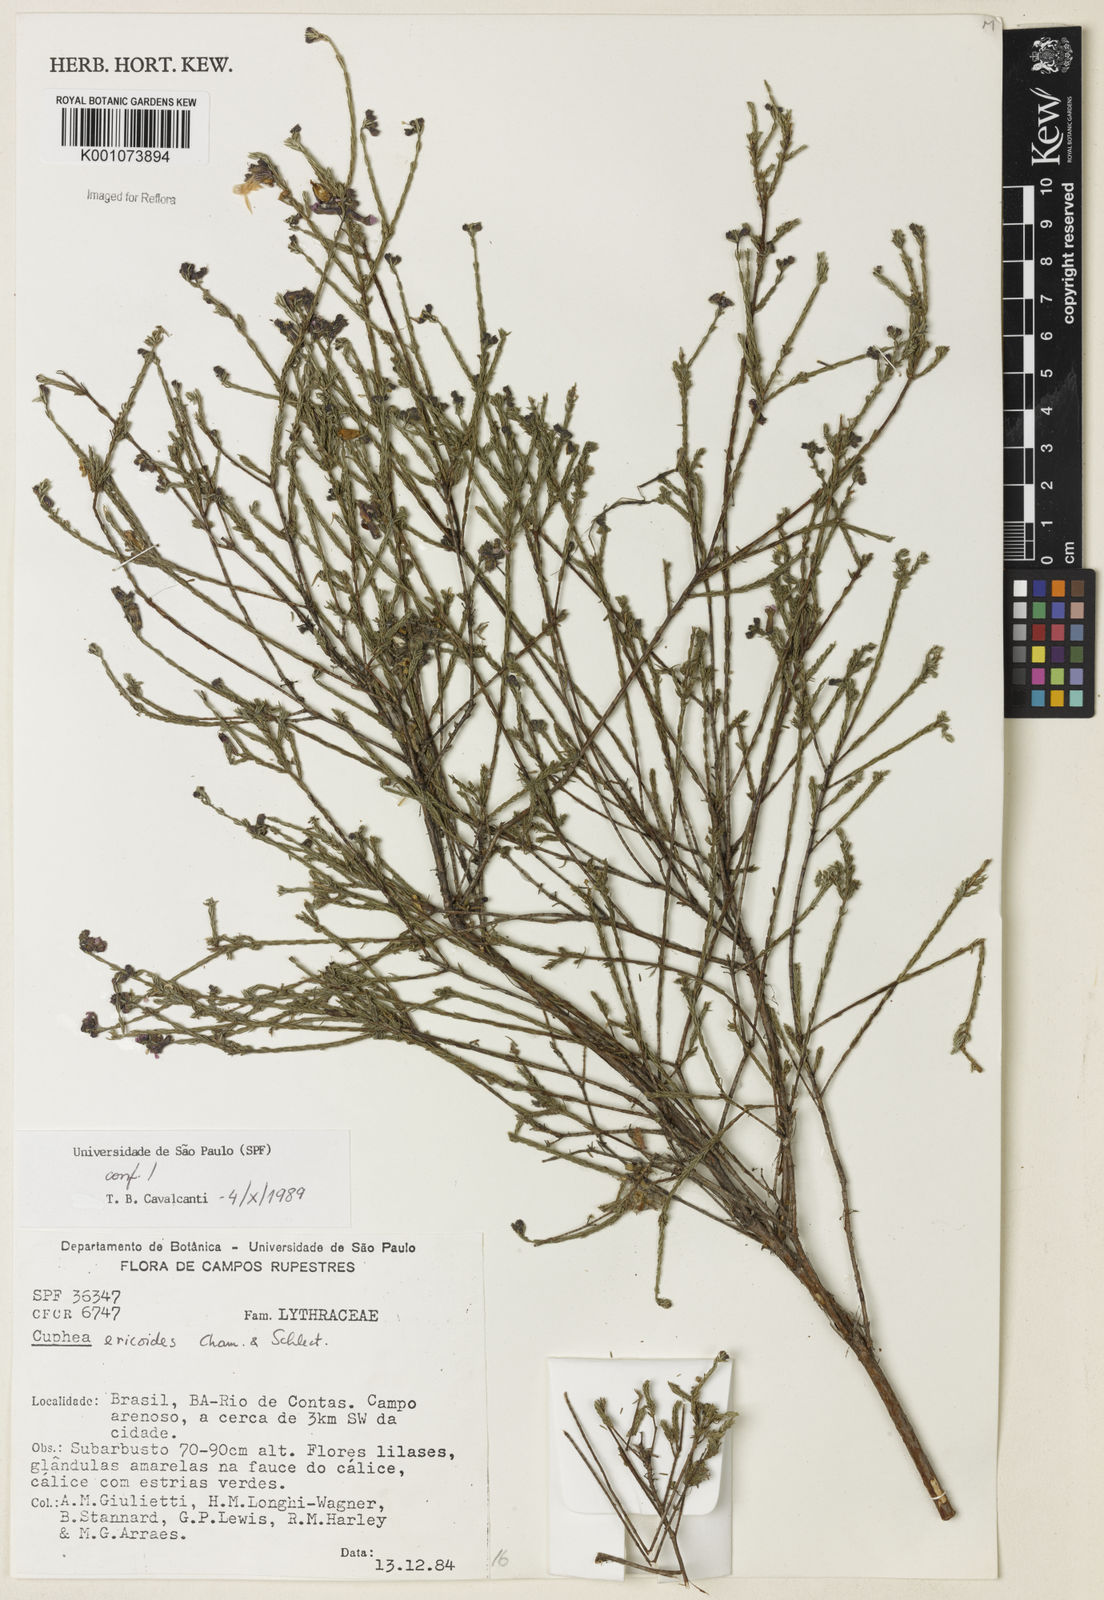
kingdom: Plantae
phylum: Tracheophyta
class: Magnoliopsida
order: Gentianales
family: Rubiaceae
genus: Spermacoce
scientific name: Spermacoce
